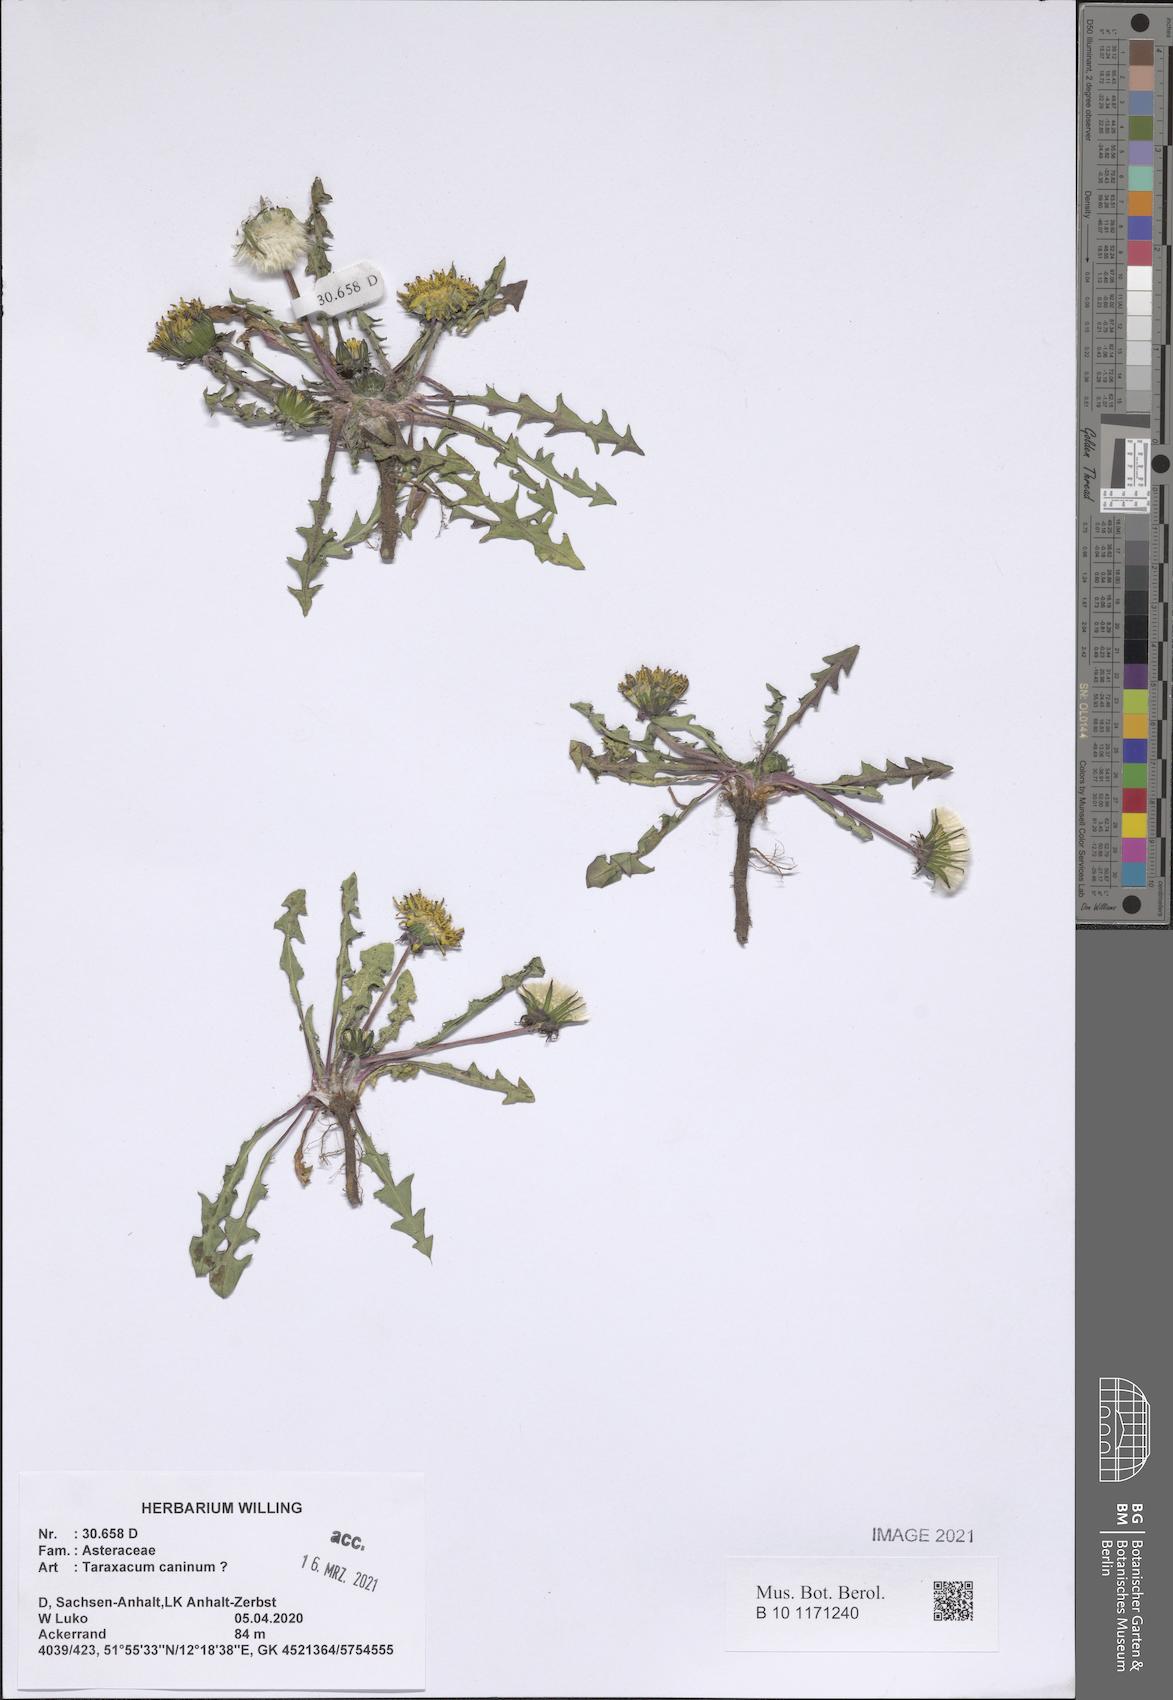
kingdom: Plantae
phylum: Tracheophyta
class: Magnoliopsida
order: Asterales
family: Asteraceae
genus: Taraxacum
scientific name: Taraxacum
